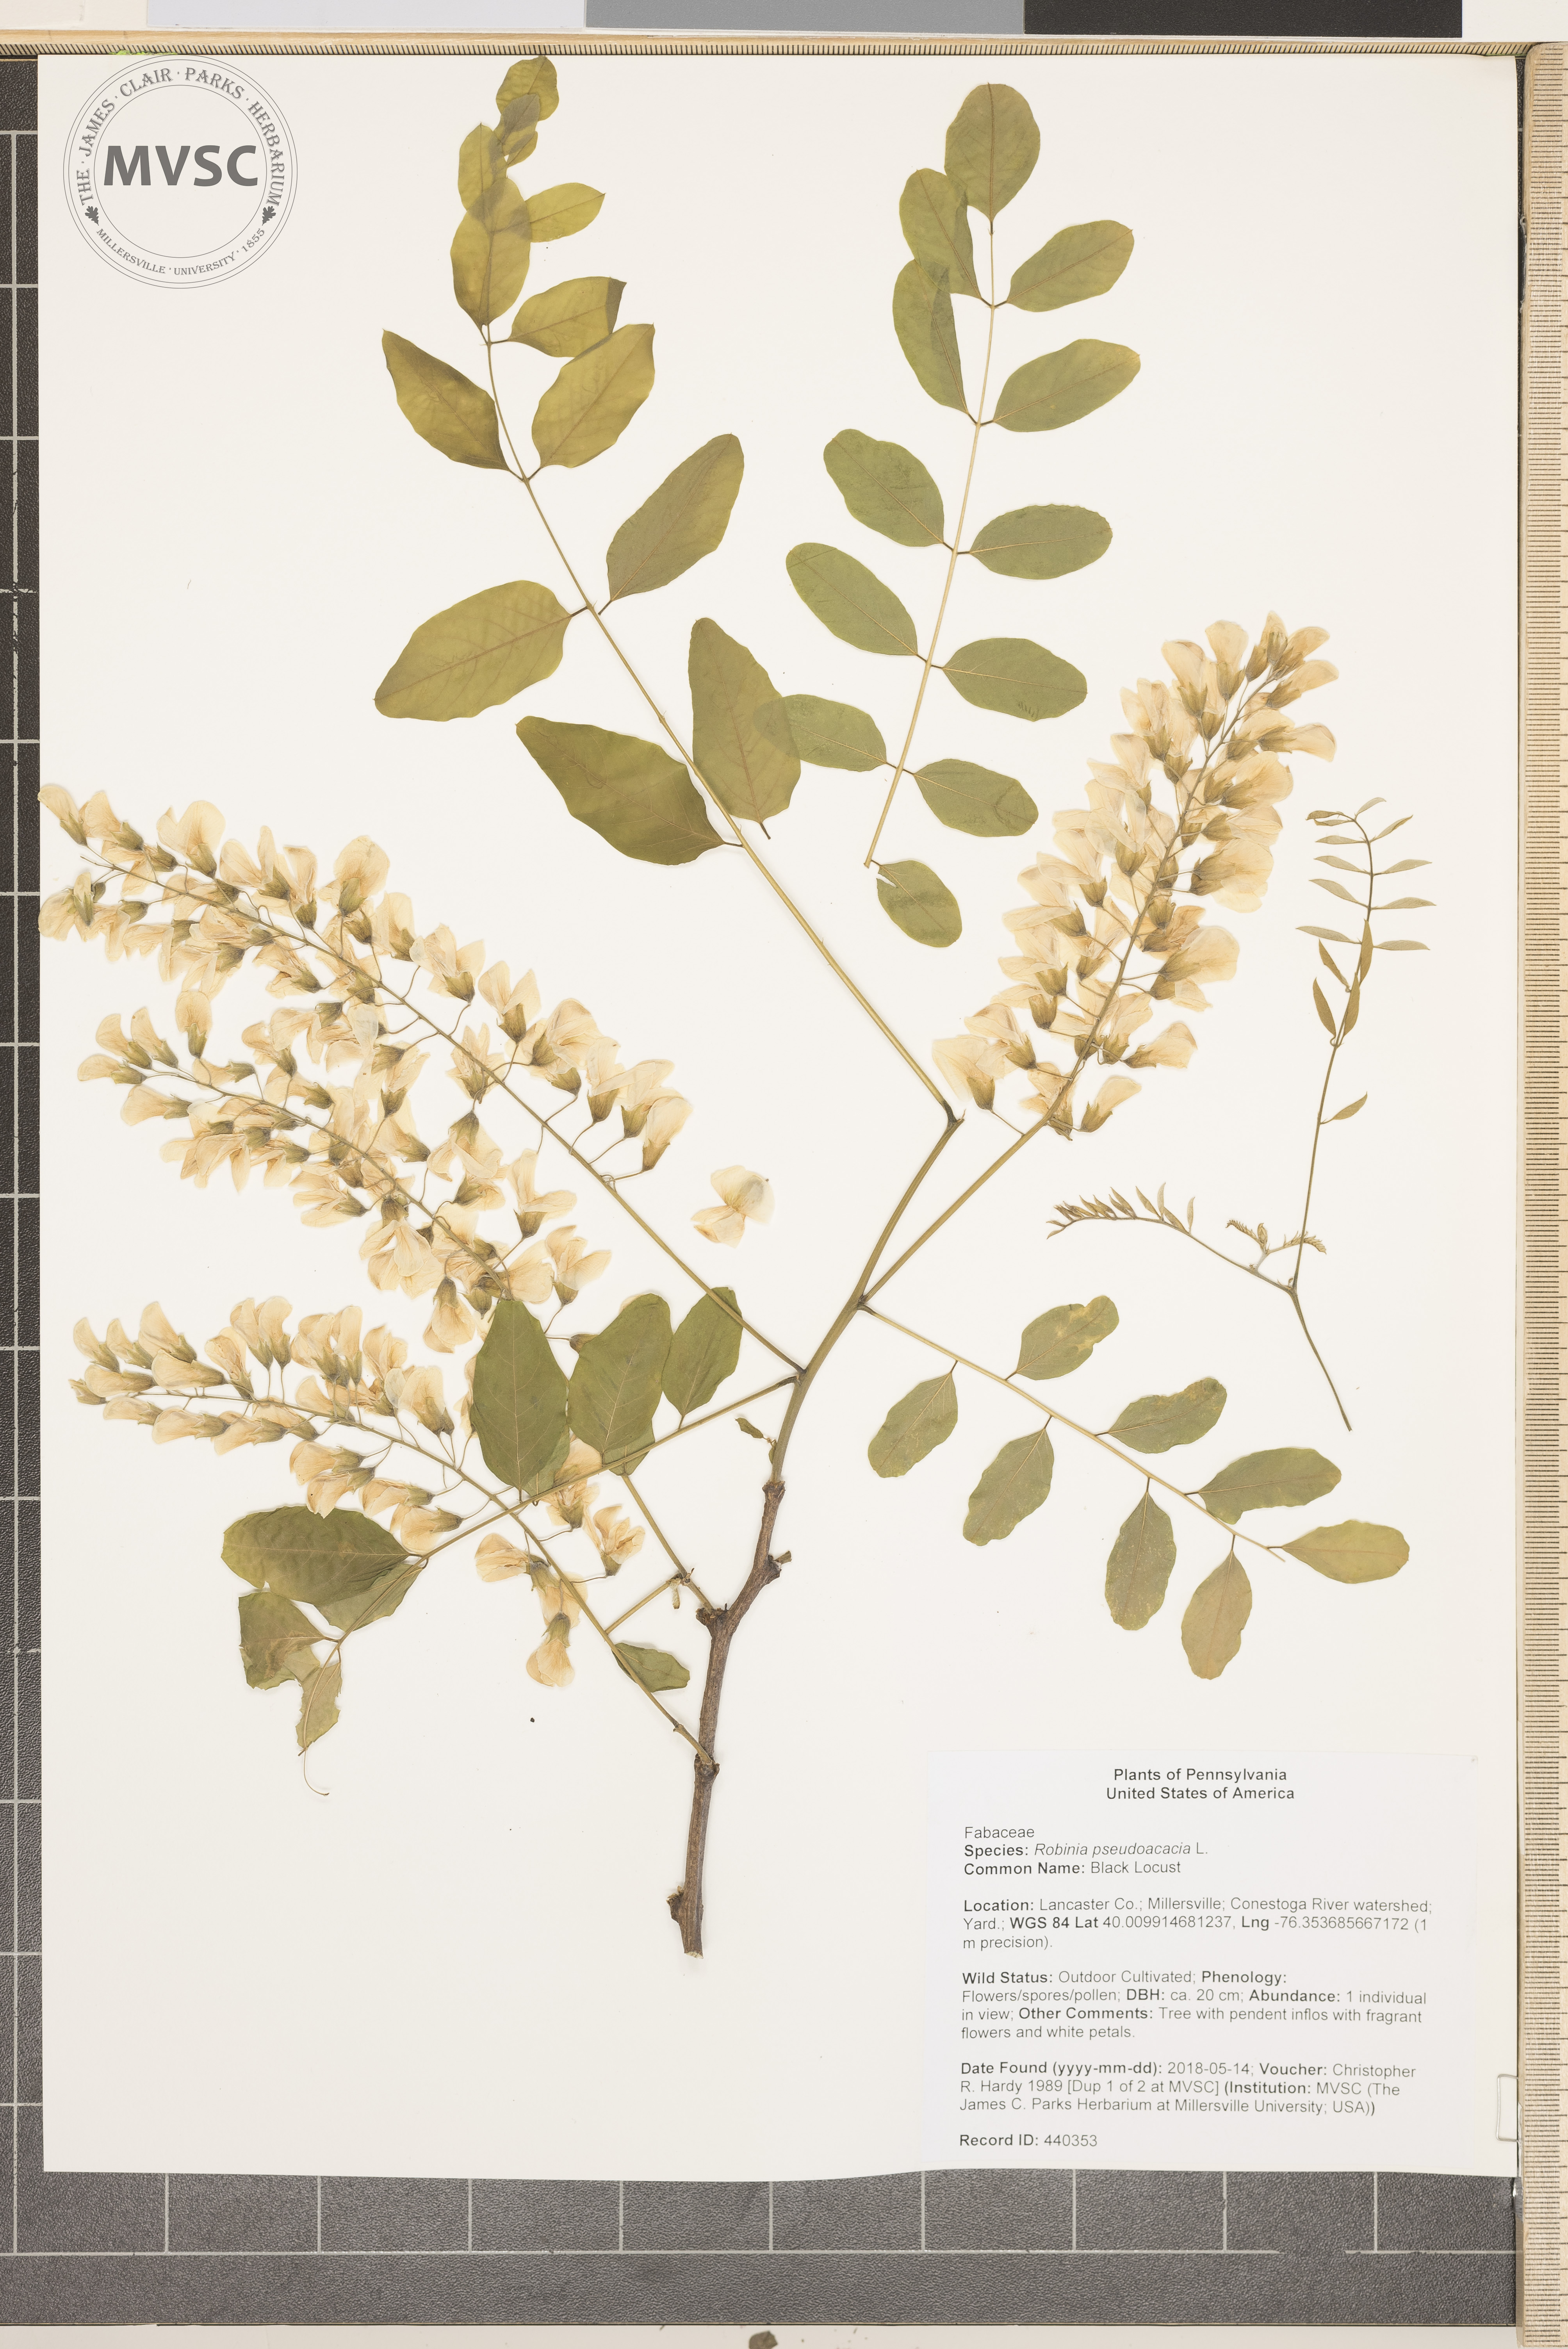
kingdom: Plantae
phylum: Tracheophyta
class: Magnoliopsida
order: Fabales
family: Fabaceae
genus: Robinia
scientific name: Robinia pseudoacacia
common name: Black Locust
